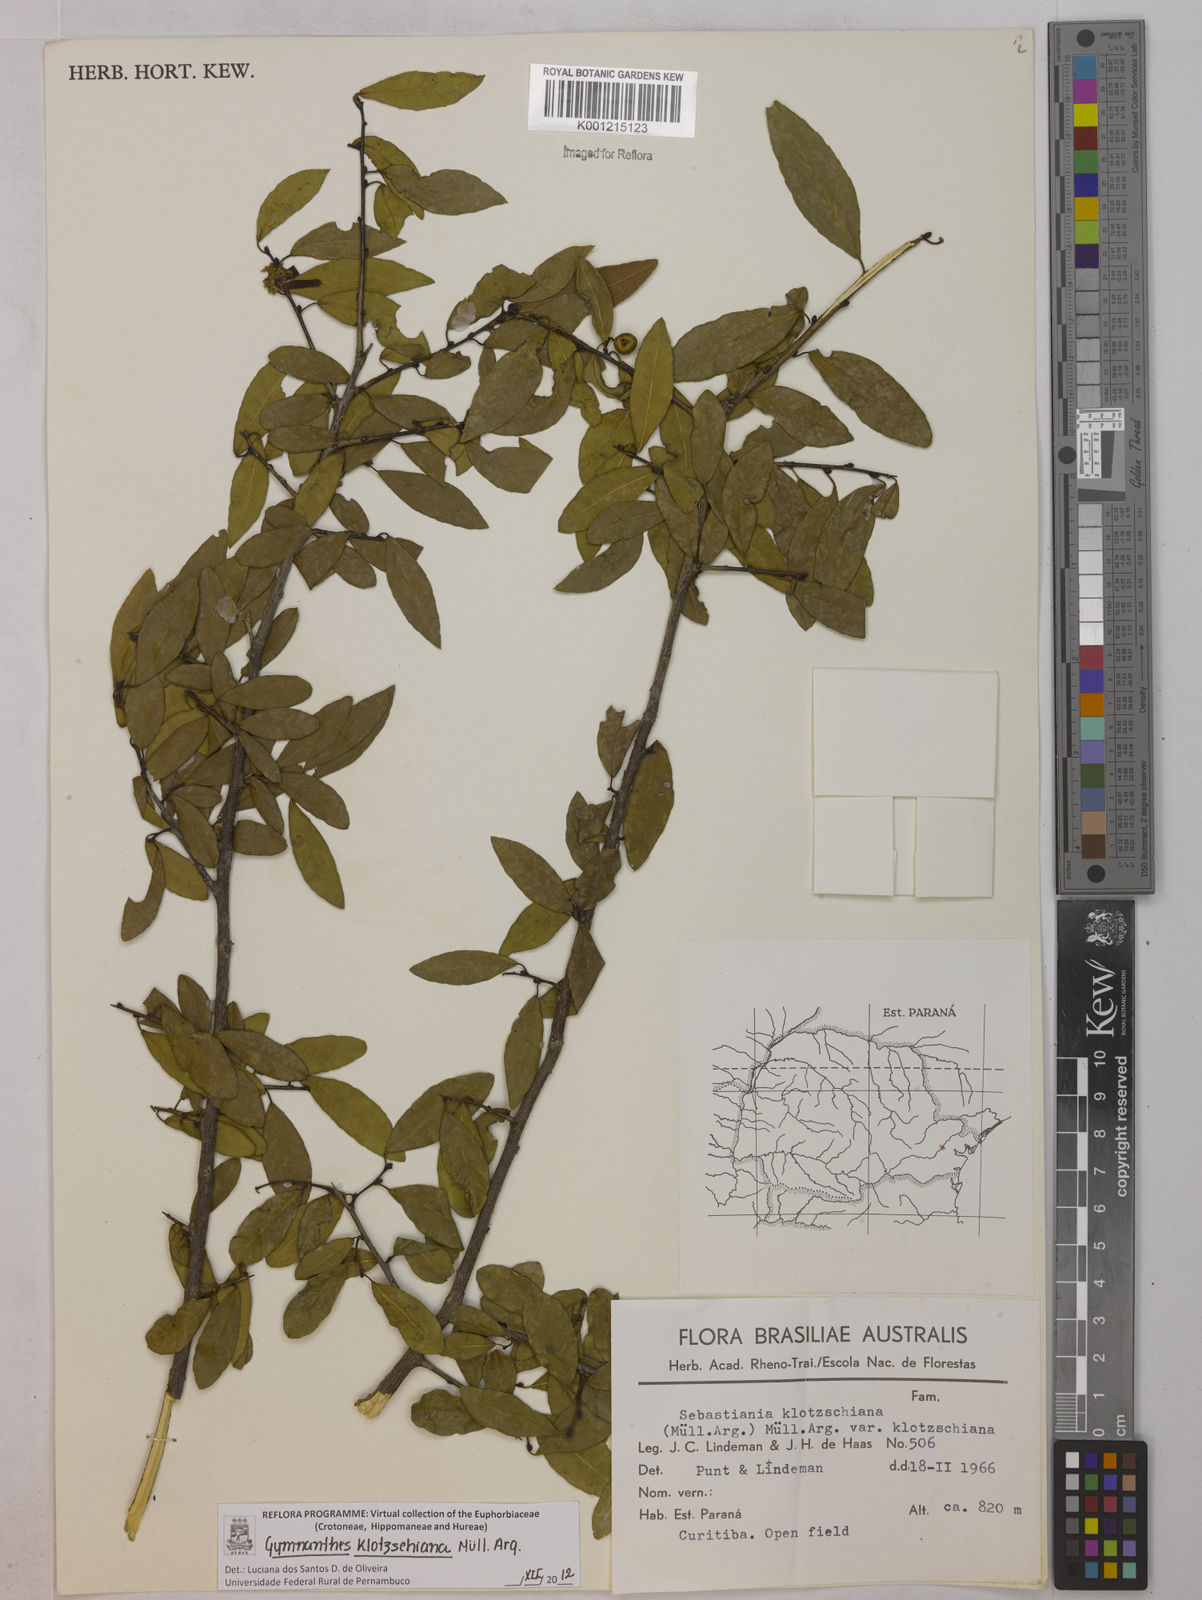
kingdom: Plantae
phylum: Tracheophyta
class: Magnoliopsida
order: Malpighiales
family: Euphorbiaceae
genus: Gymnanthes
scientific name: Gymnanthes
